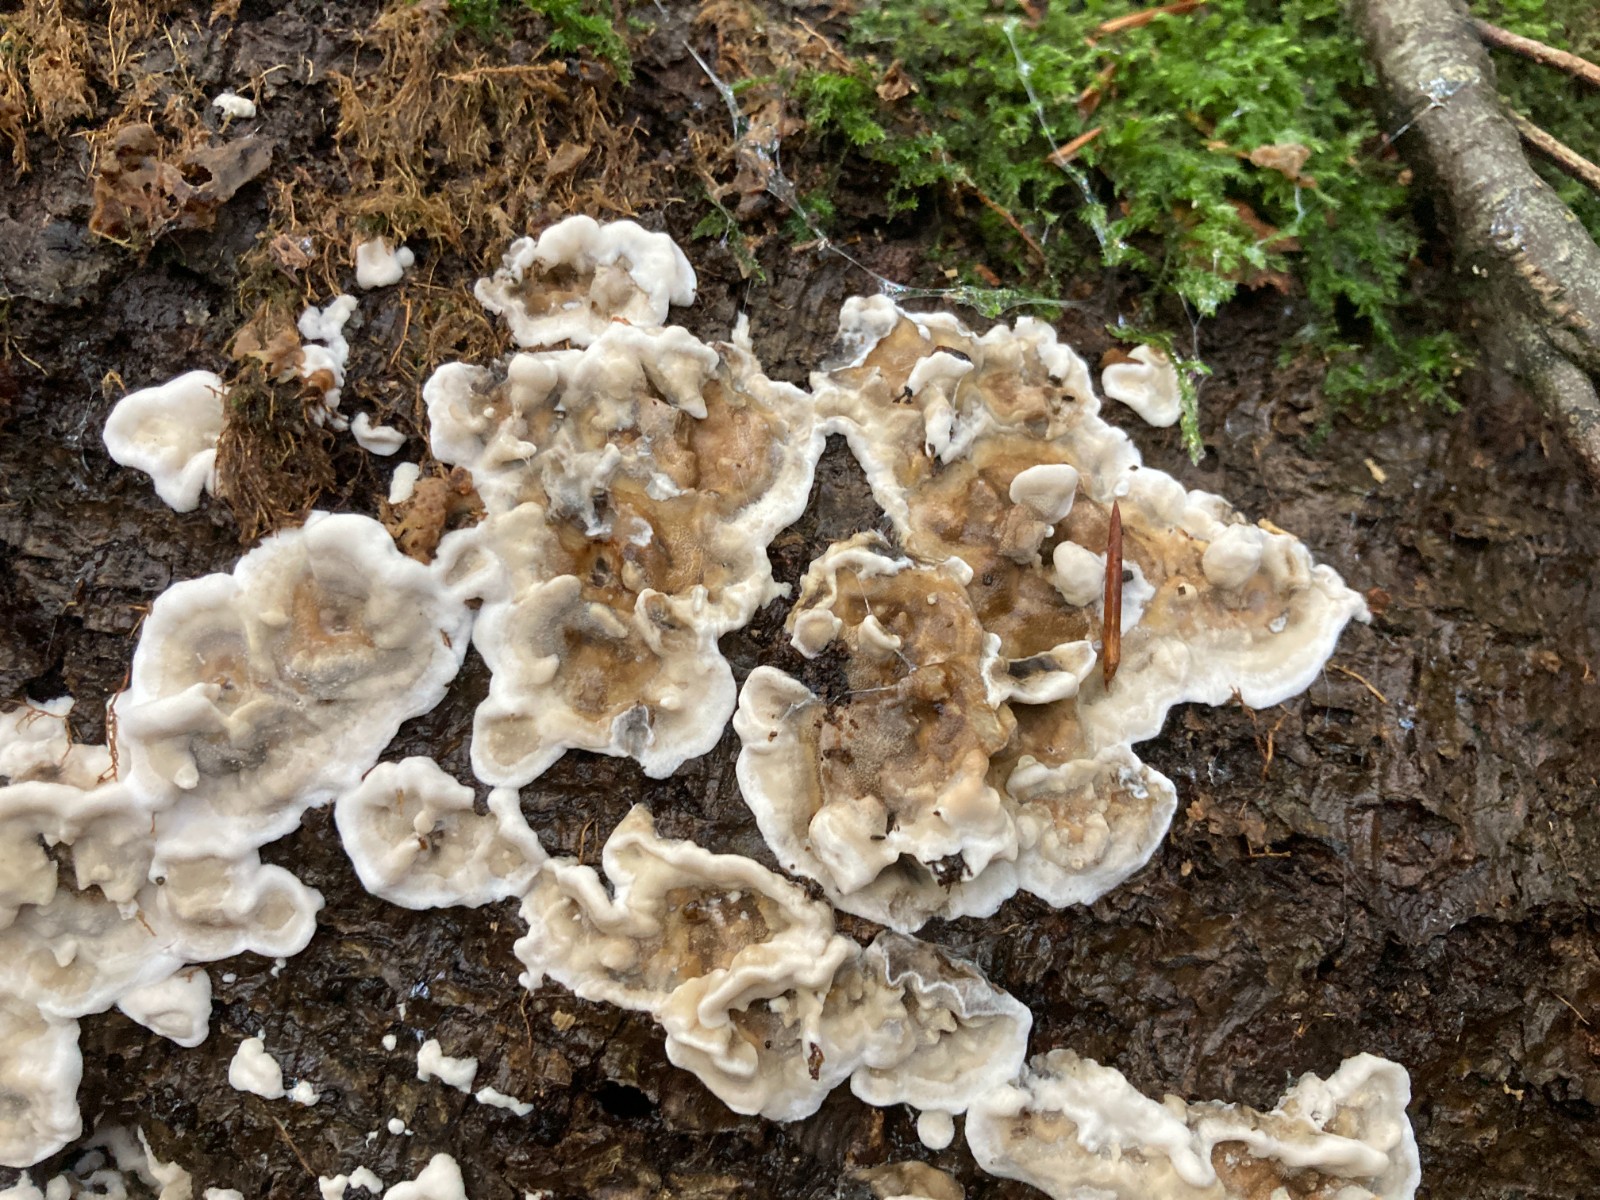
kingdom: Fungi
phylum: Basidiomycota
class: Agaricomycetes
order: Polyporales
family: Phanerochaetaceae
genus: Bjerkandera
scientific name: Bjerkandera adusta
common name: sveden sodporesvamp
